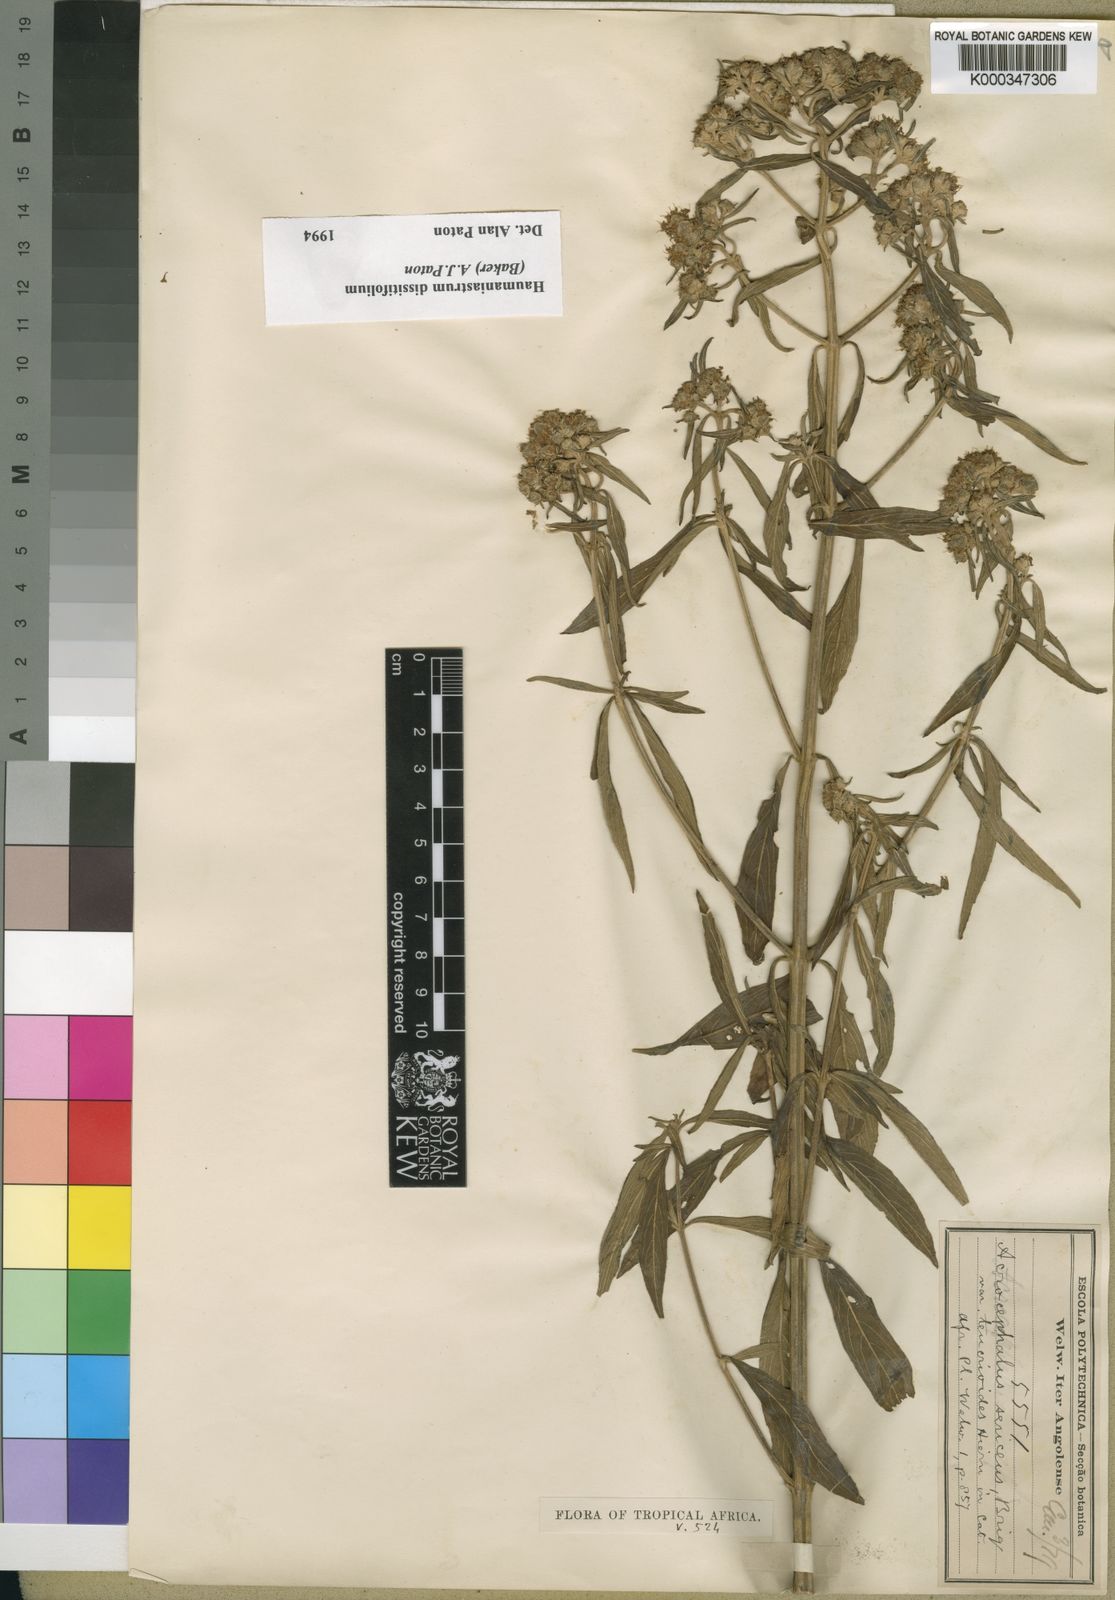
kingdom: Plantae
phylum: Tracheophyta
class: Magnoliopsida
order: Lamiales
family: Lamiaceae
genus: Haumaniastrum
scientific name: Haumaniastrum dissitifolium
